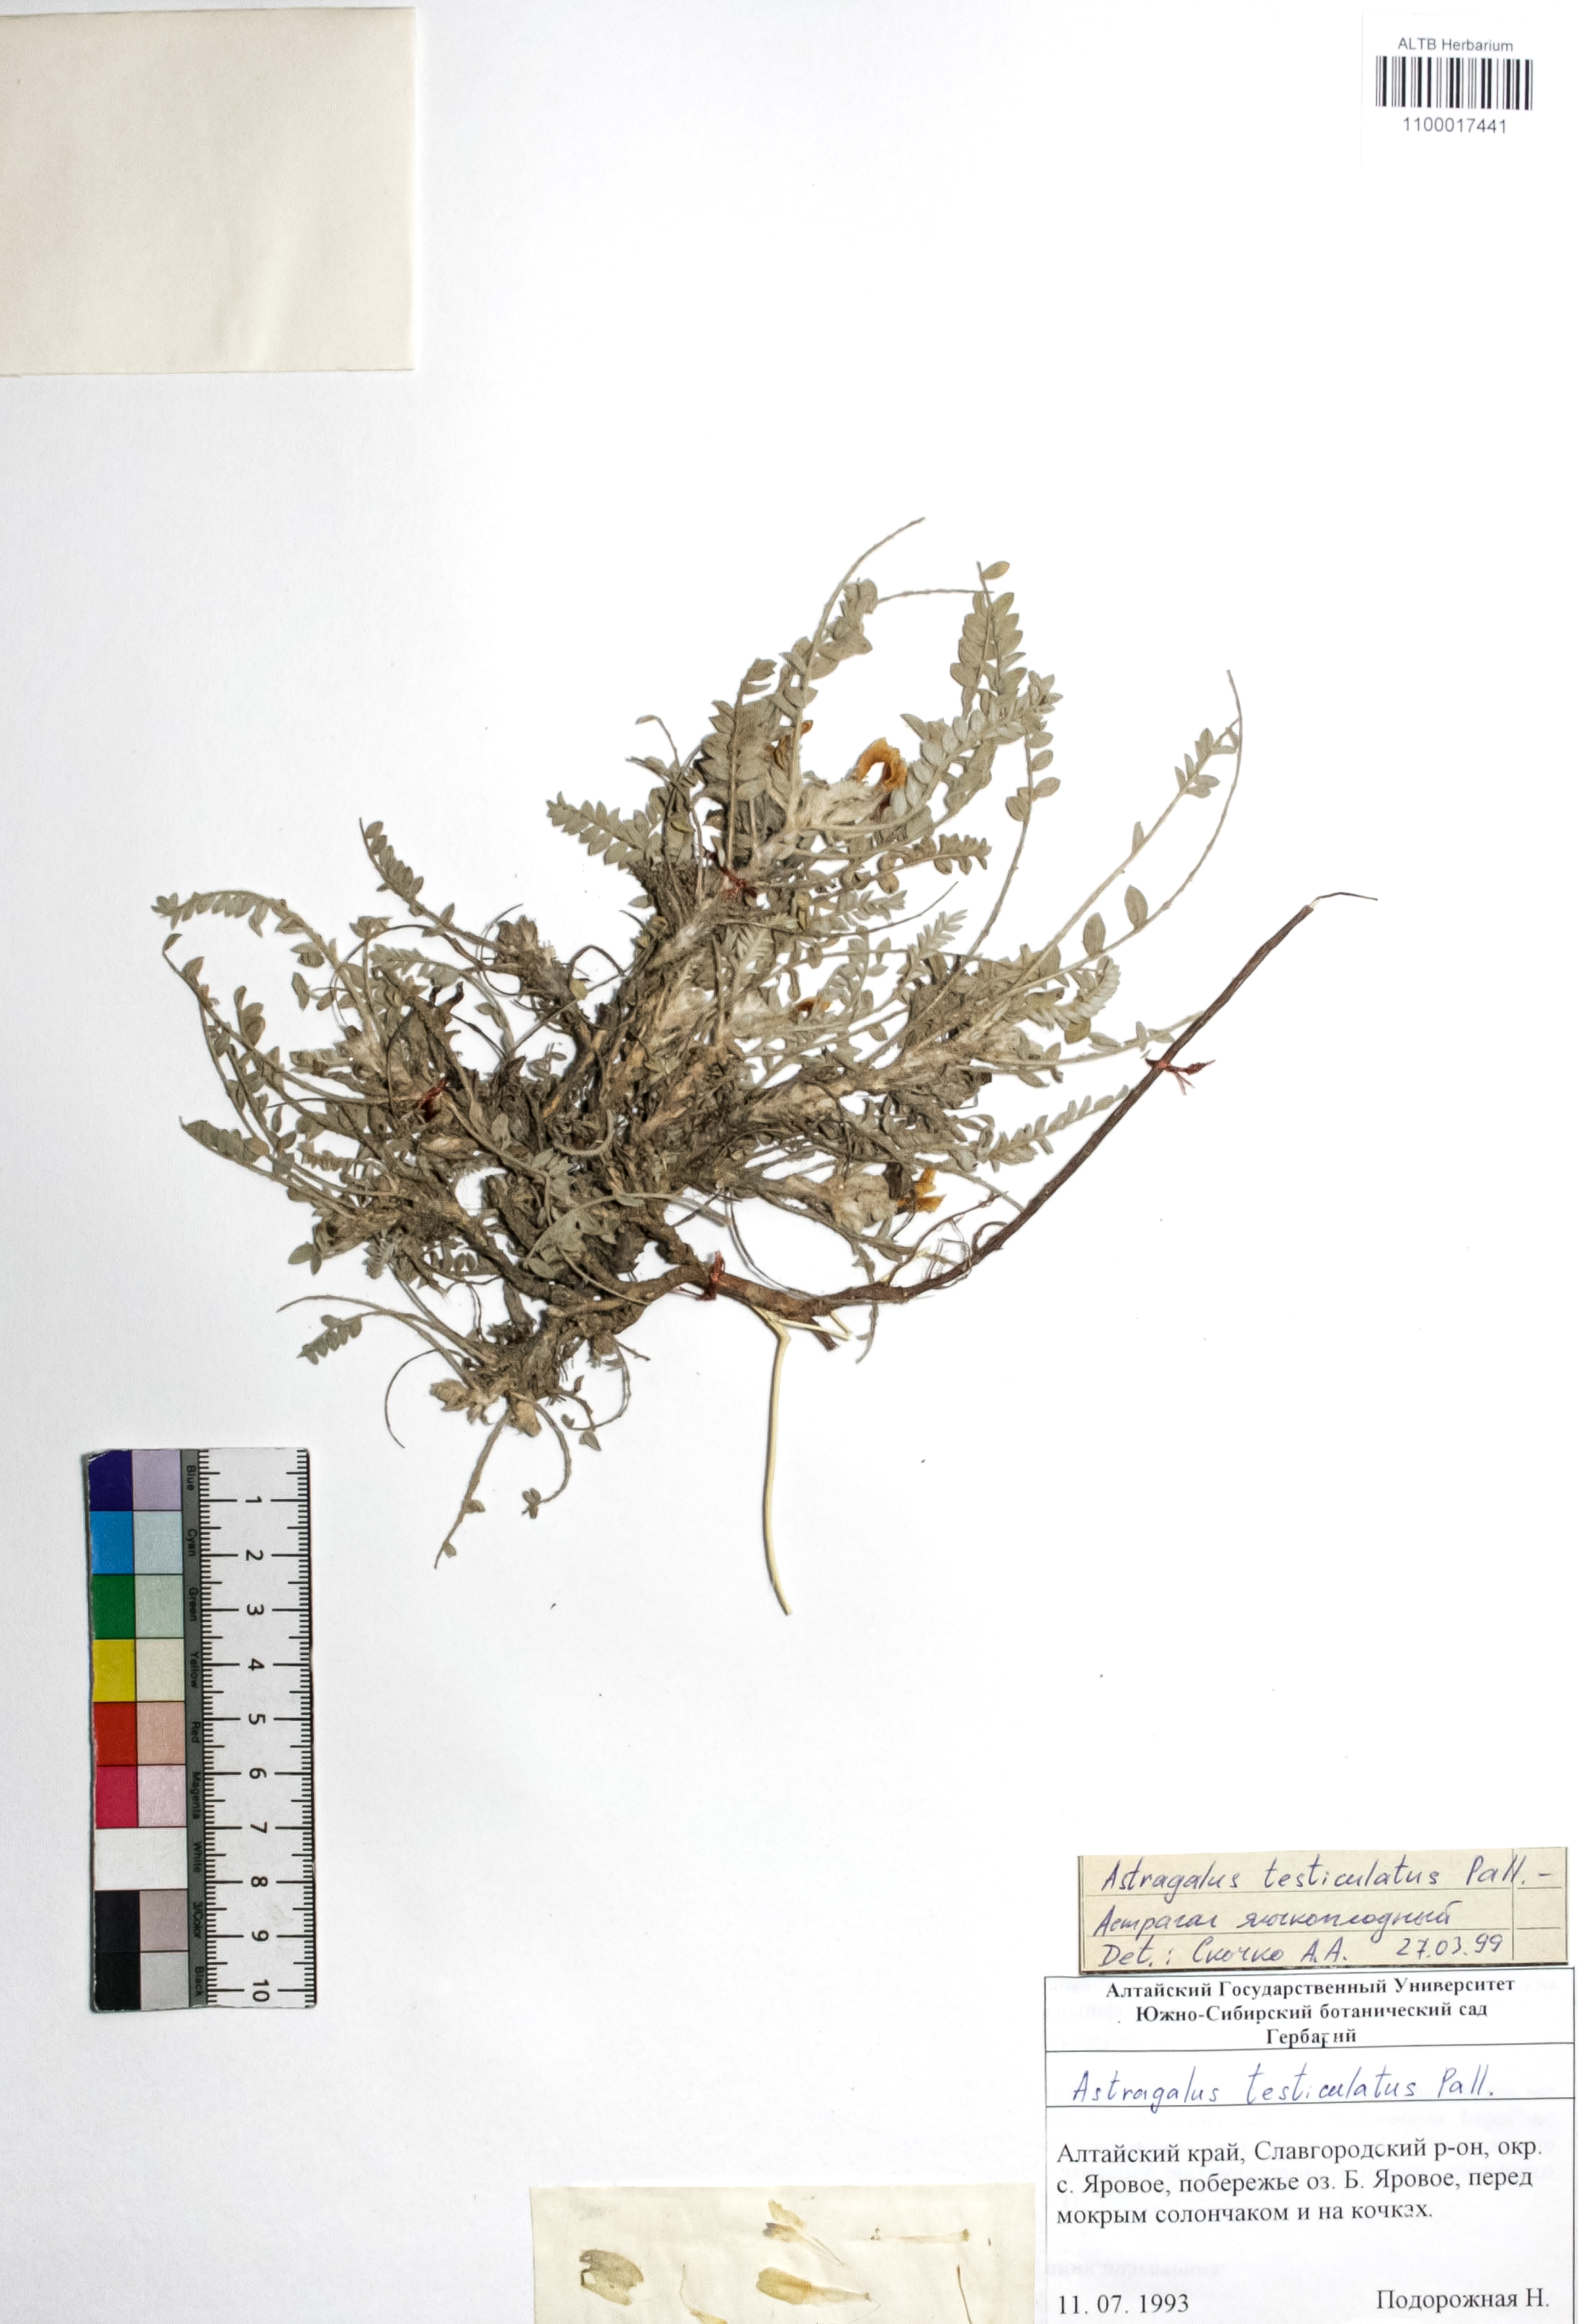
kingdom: Plantae
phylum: Tracheophyta
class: Magnoliopsida
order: Fabales
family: Fabaceae
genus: Astragalus
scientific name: Astragalus testiculatus
